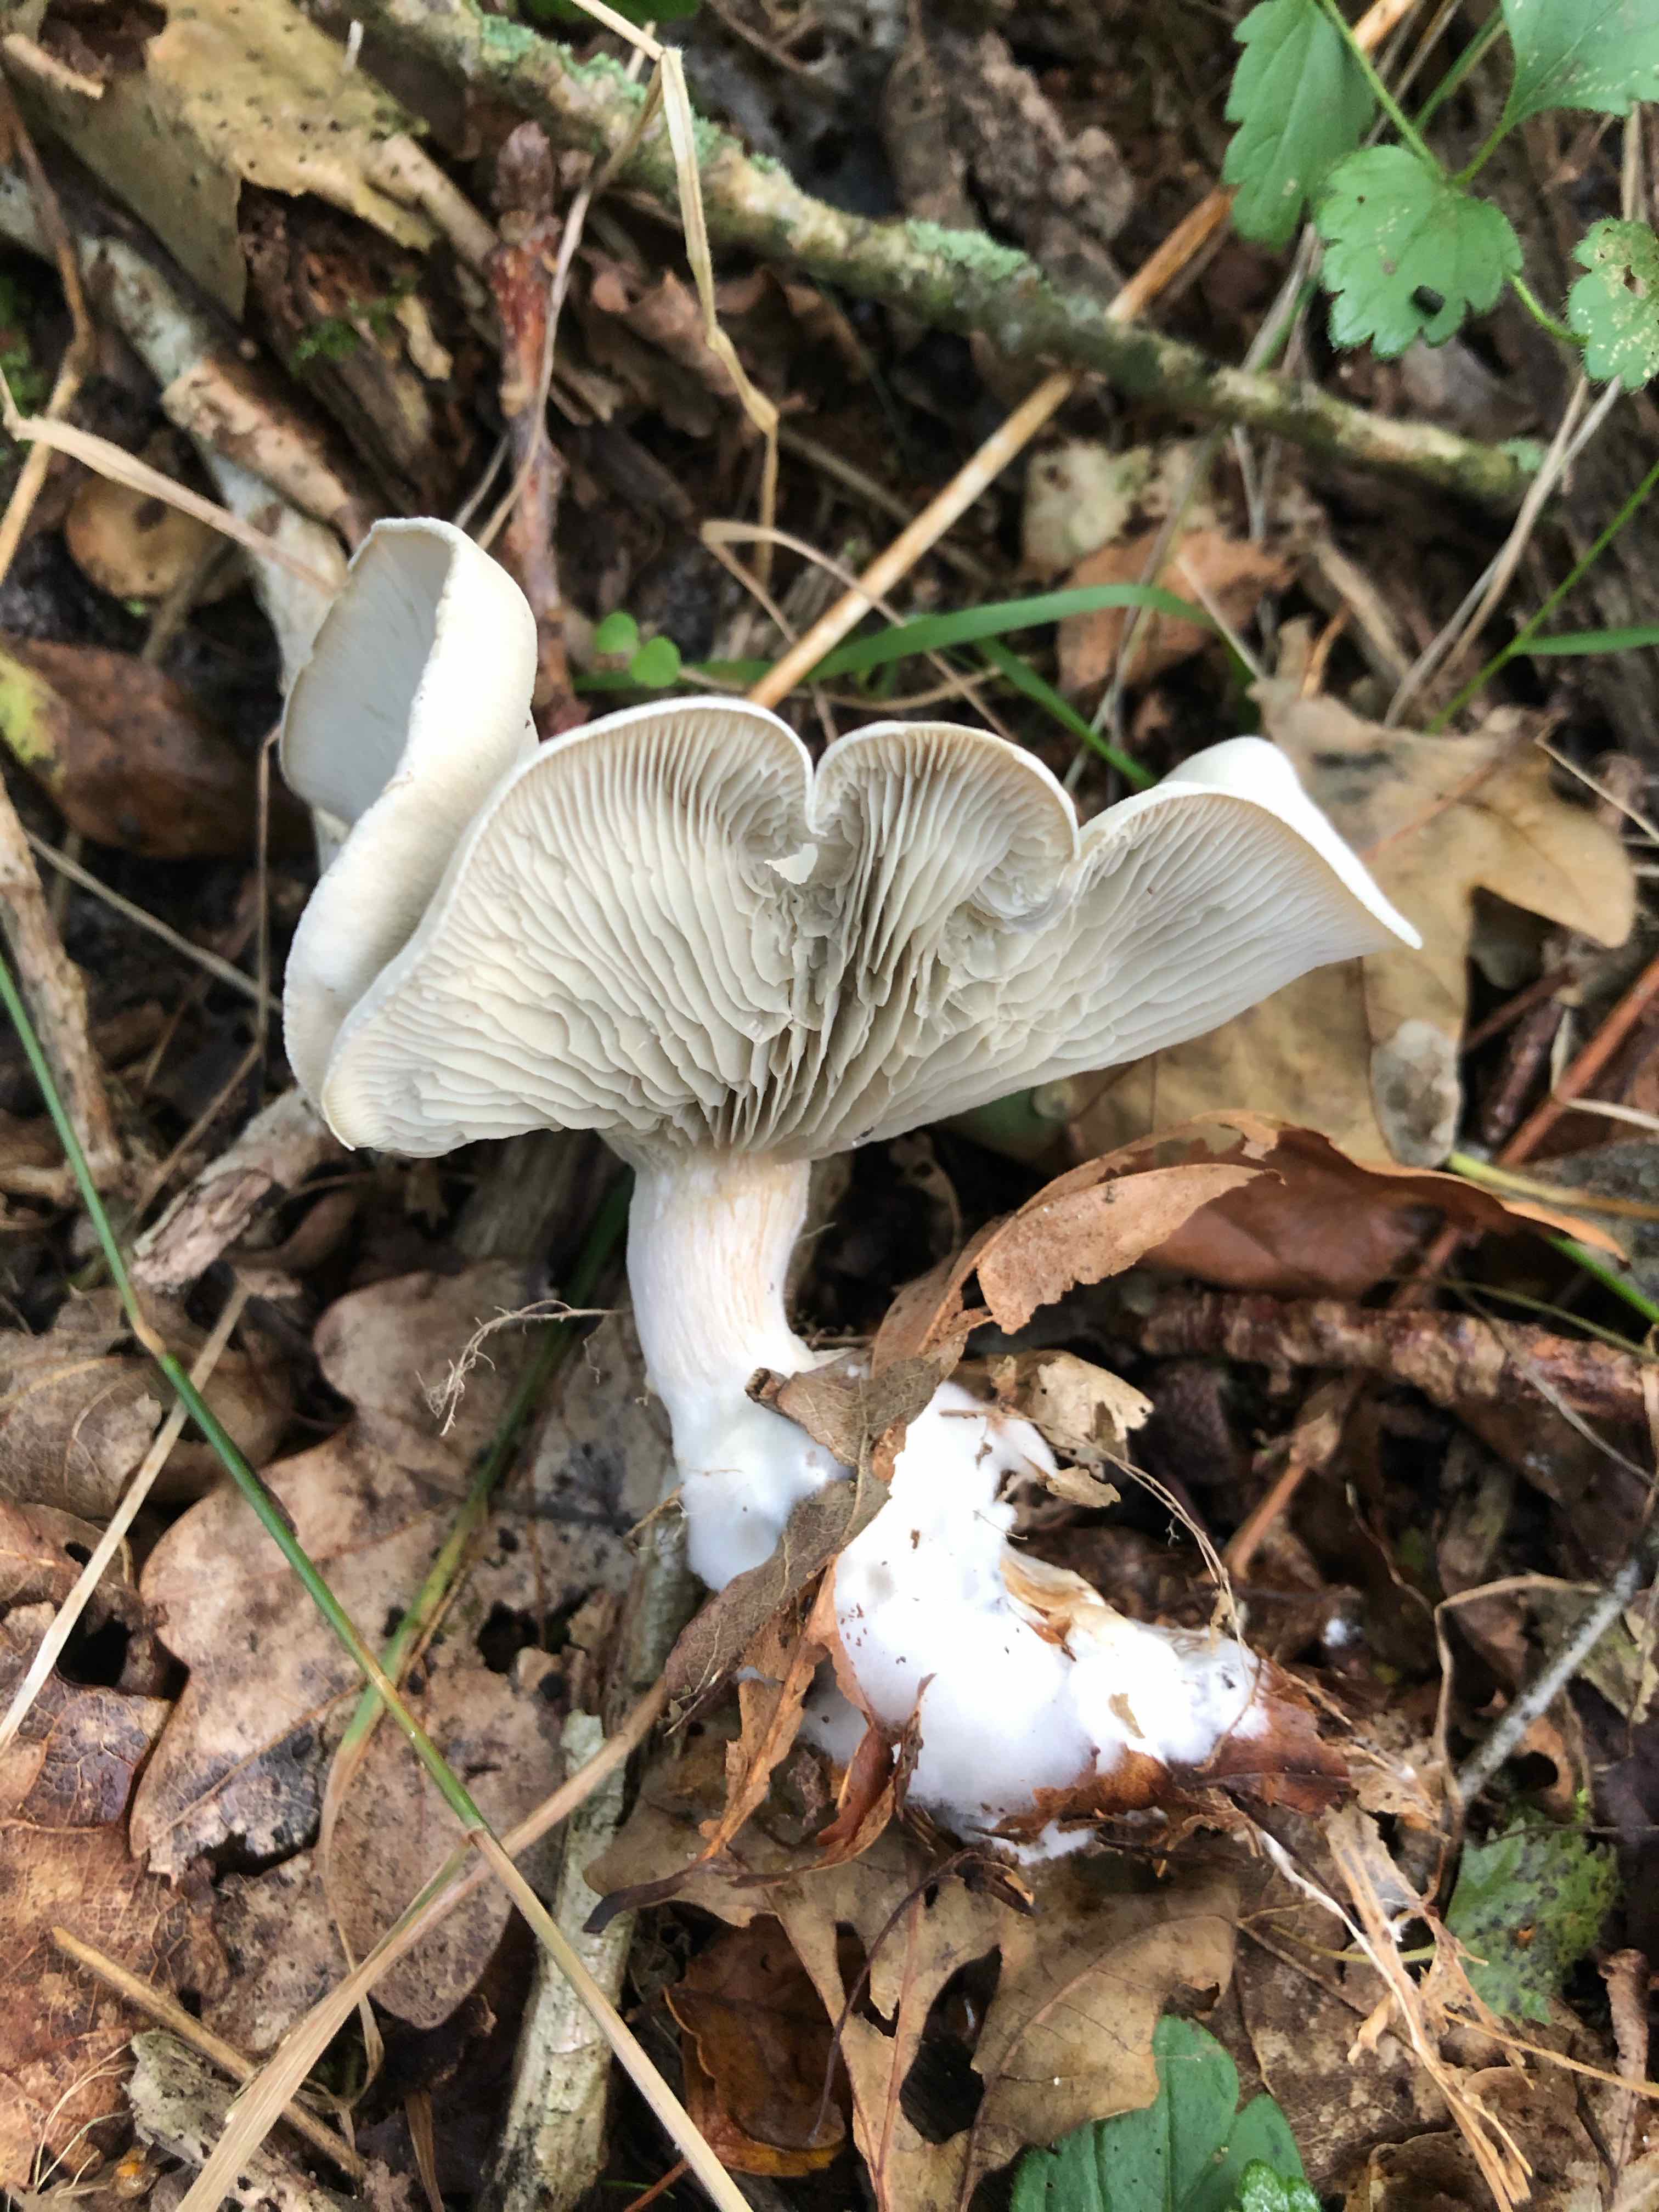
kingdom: Fungi
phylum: Basidiomycota
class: Agaricomycetes
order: Agaricales
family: Tricholomataceae
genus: Clitocybe
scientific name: Clitocybe odora
